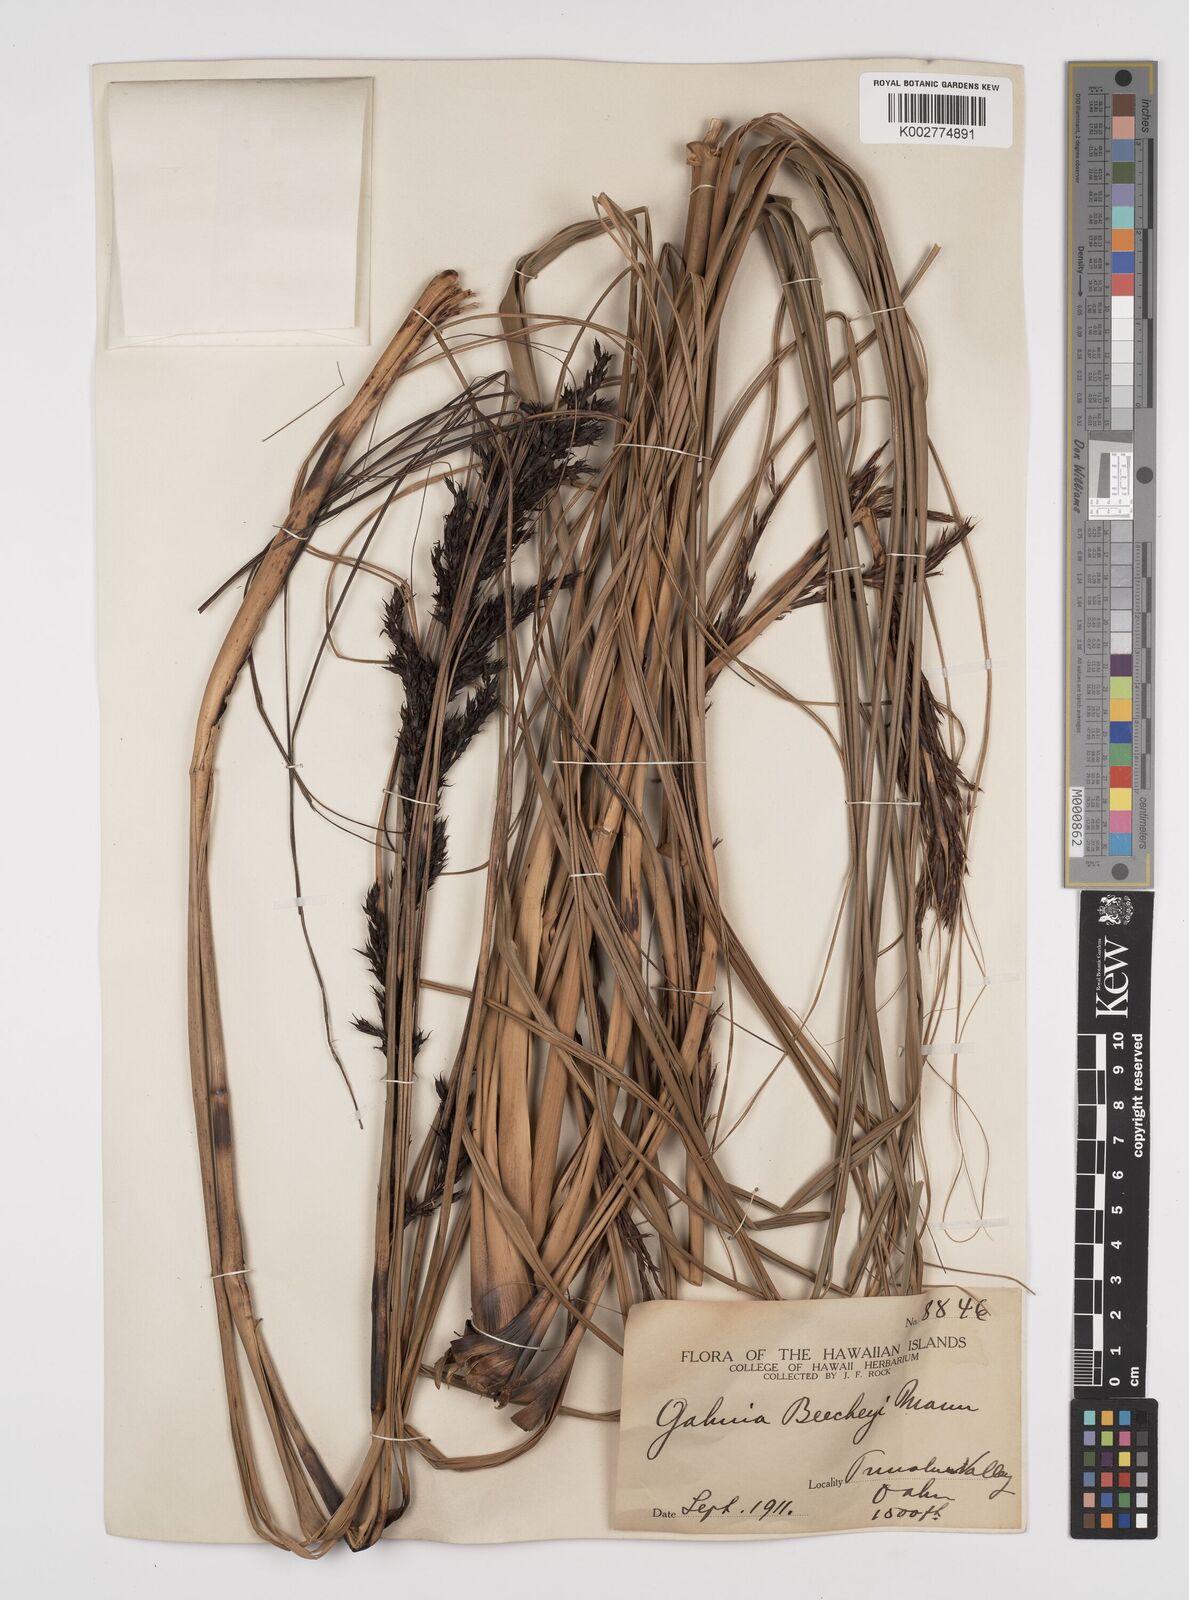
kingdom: Plantae
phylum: Tracheophyta
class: Liliopsida
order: Poales
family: Cyperaceae
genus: Gahnia
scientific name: Gahnia beecheyi
